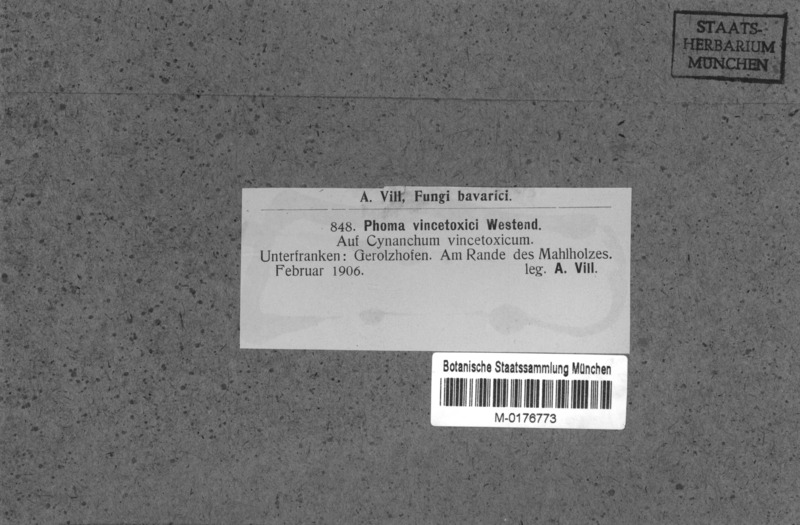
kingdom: Plantae
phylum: Tracheophyta
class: Magnoliopsida
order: Gentianales
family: Apocynaceae
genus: Vincetoxicum
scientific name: Vincetoxicum hirundinaria
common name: White swallowwort
